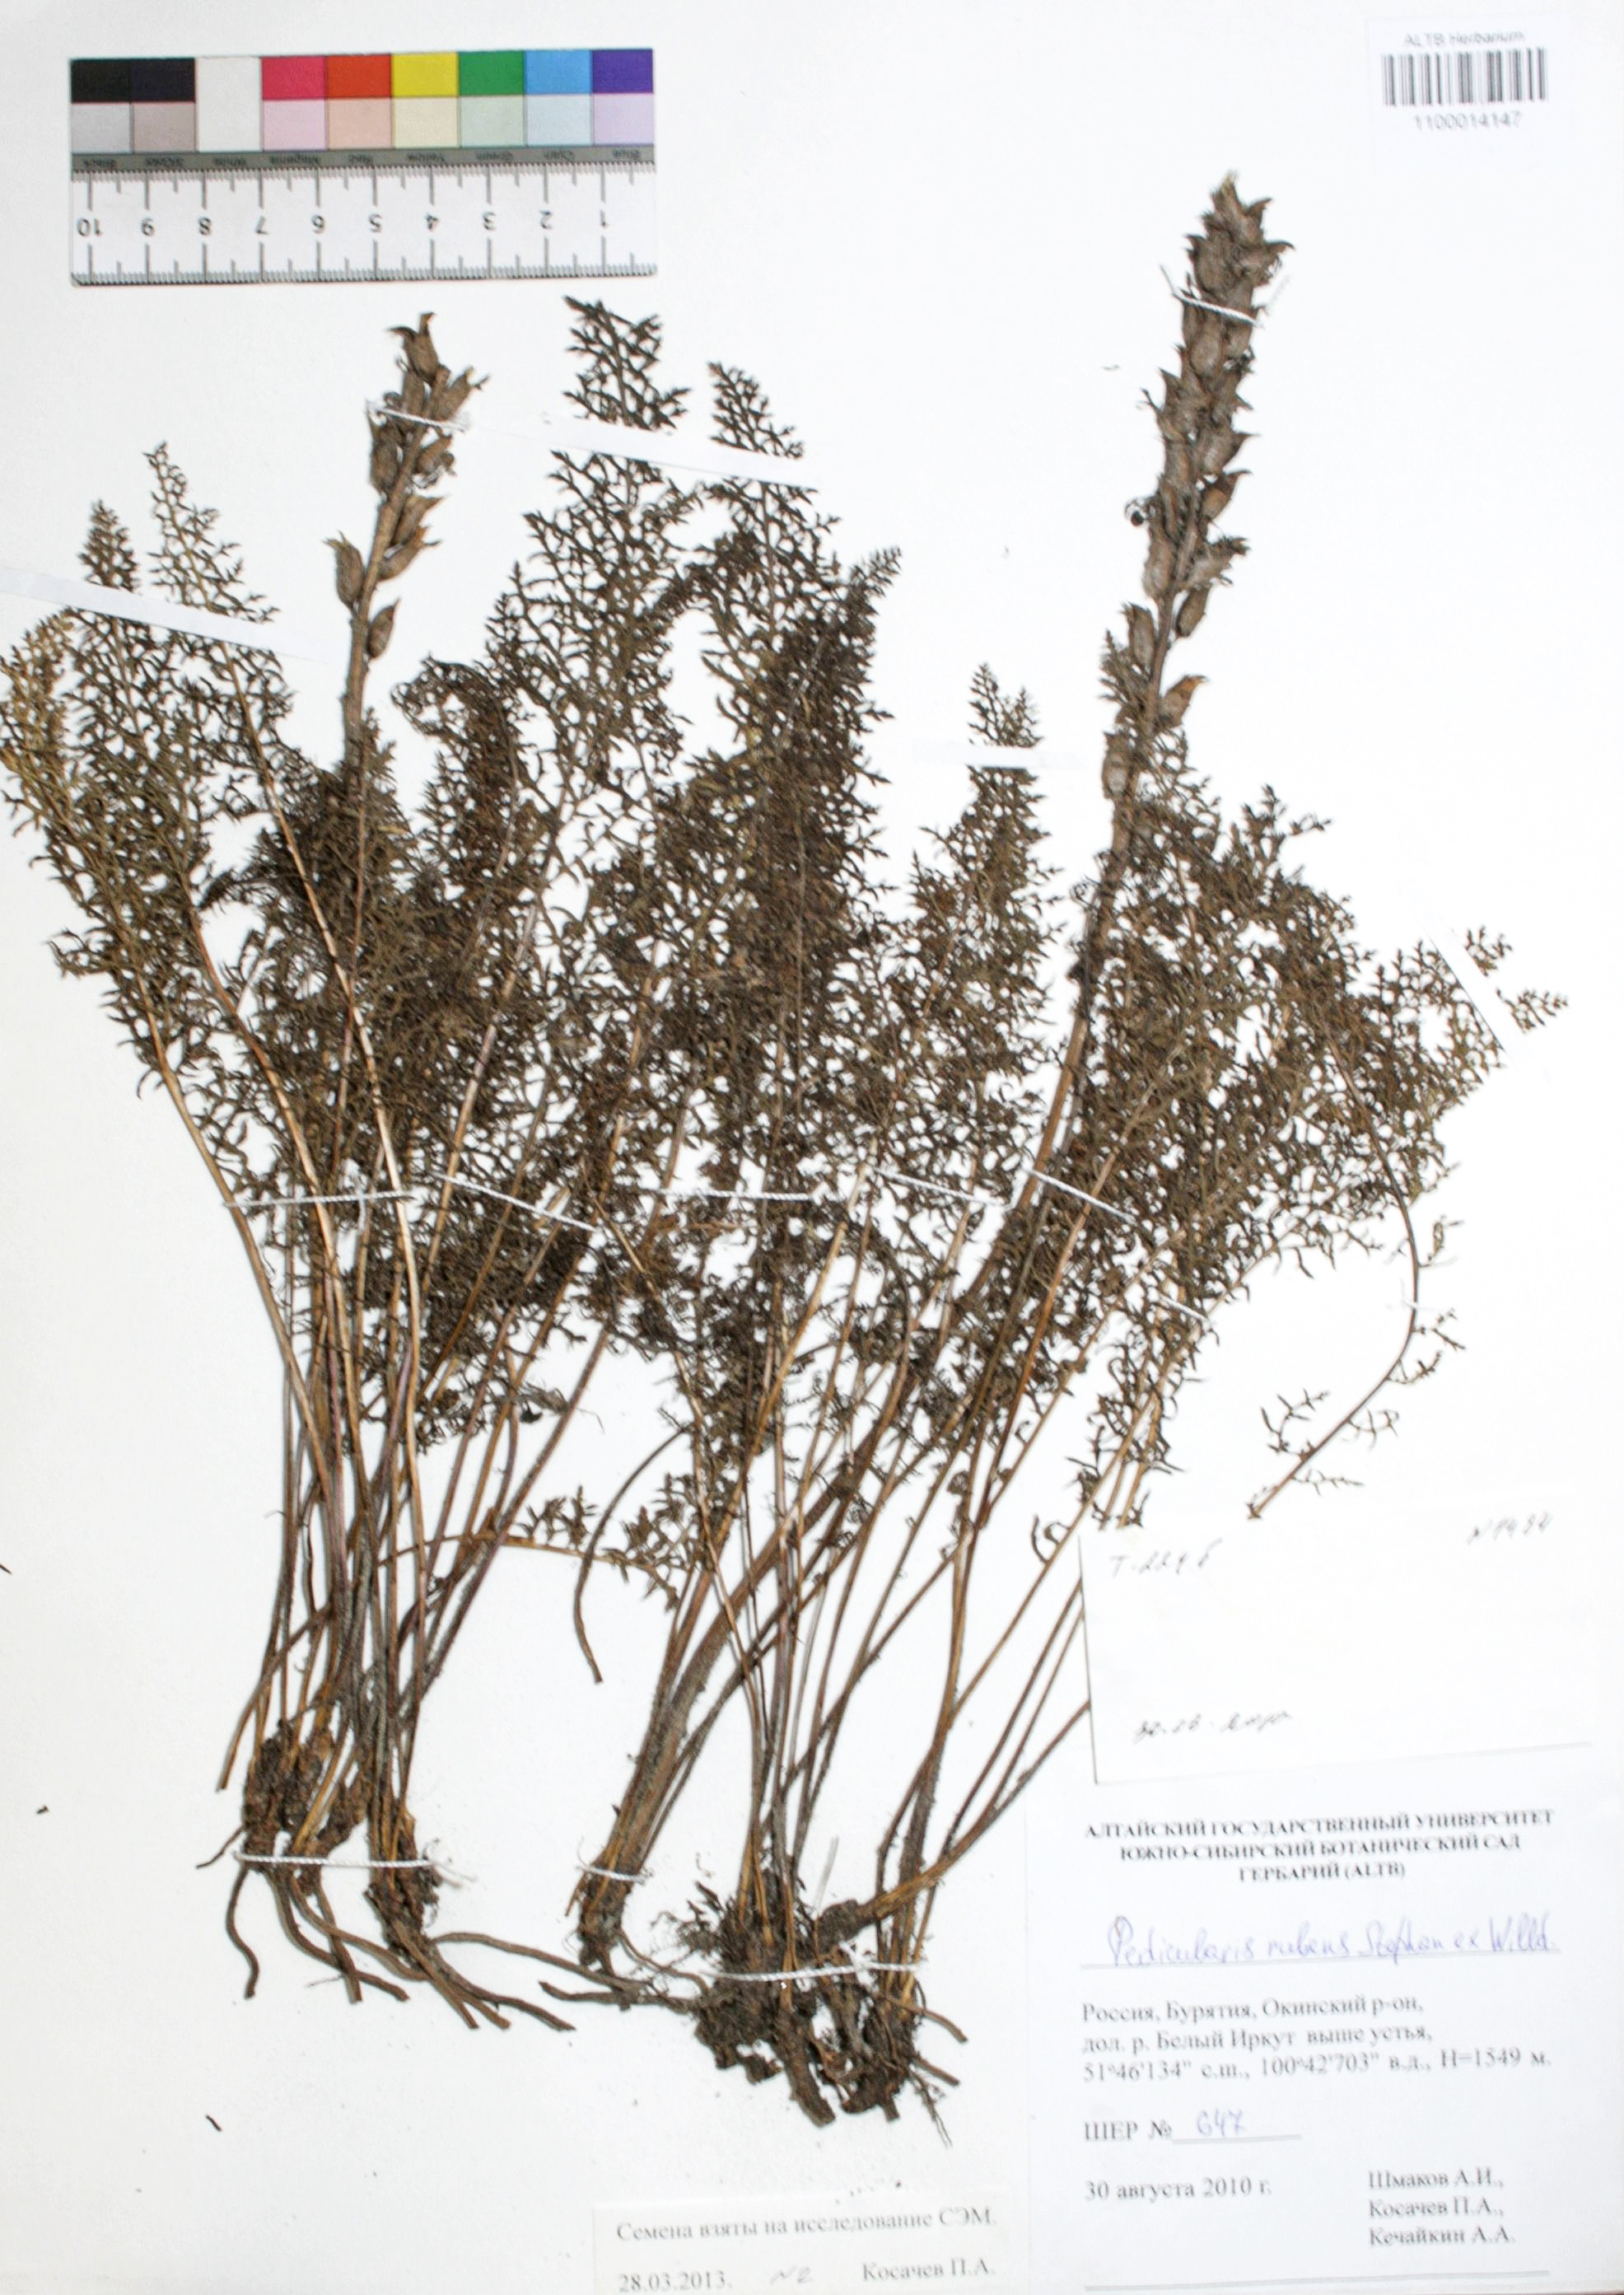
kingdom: Plantae
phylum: Tracheophyta
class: Magnoliopsida
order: Lamiales
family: Orobanchaceae
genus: Pedicularis
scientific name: Pedicularis rubens
